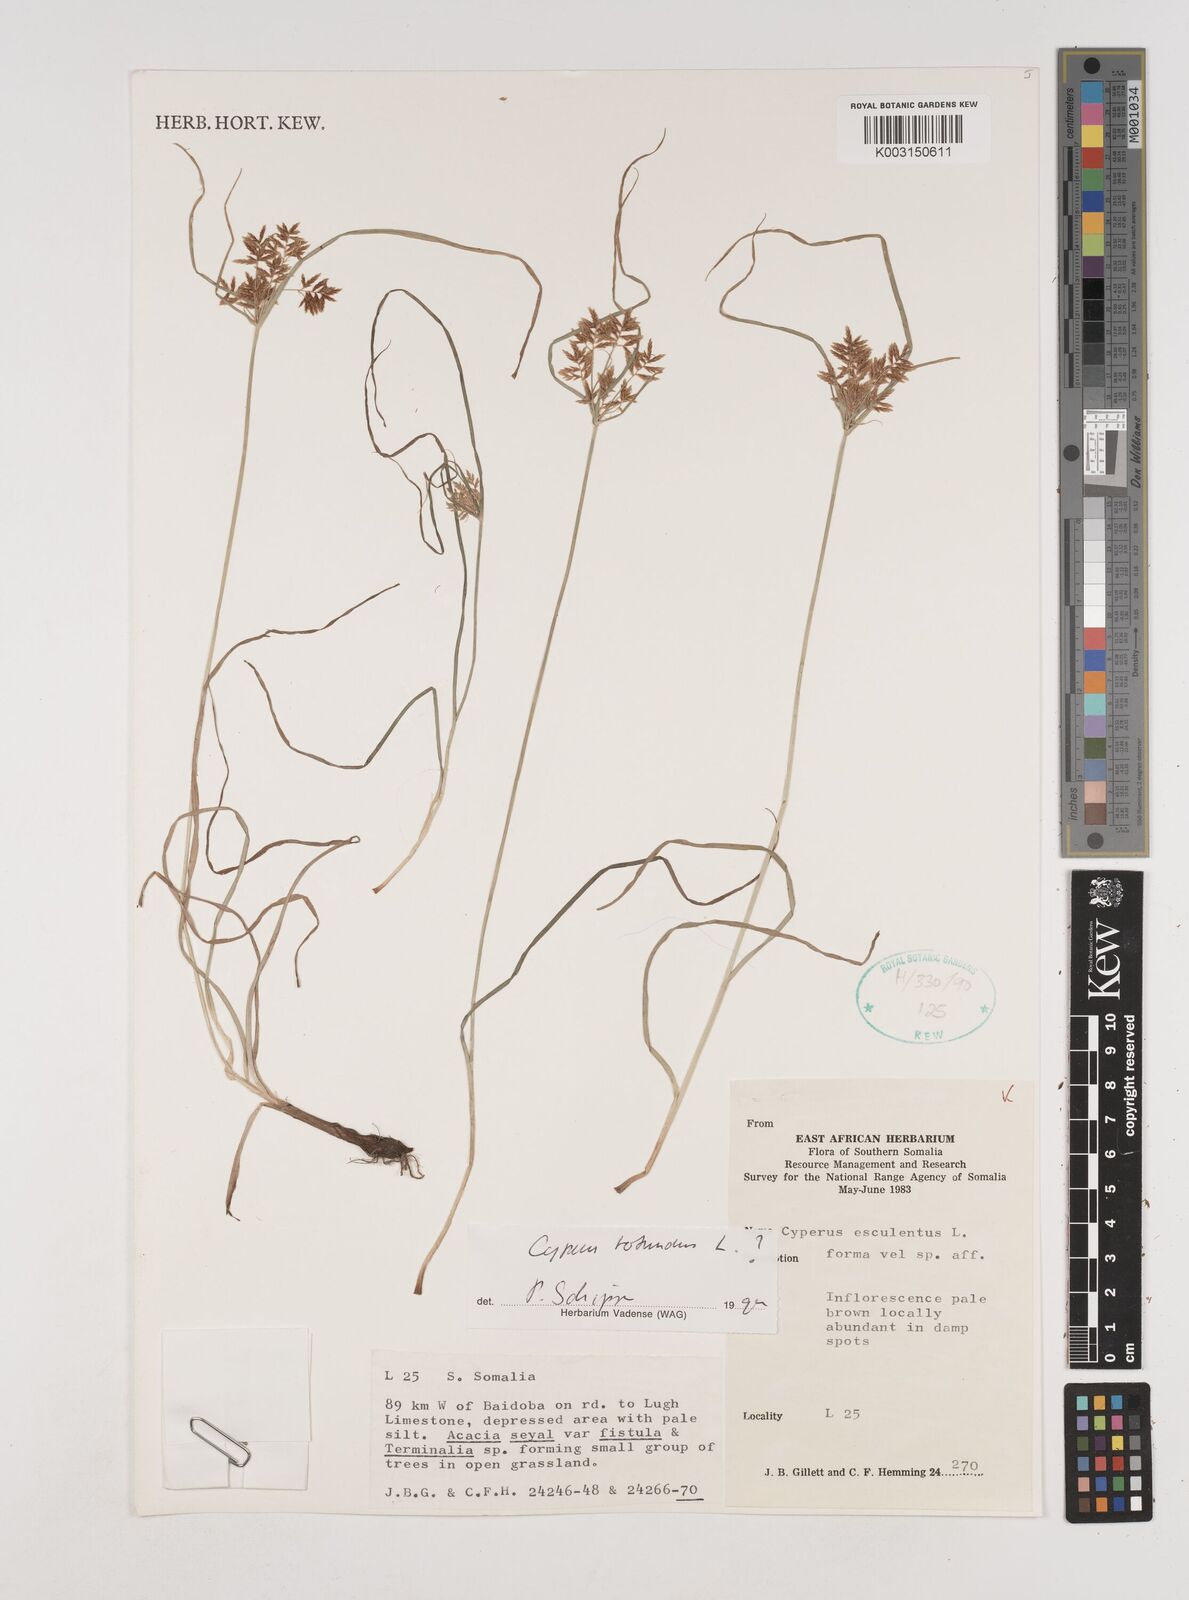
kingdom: Plantae
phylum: Tracheophyta
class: Liliopsida
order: Poales
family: Cyperaceae
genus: Cyperus
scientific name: Cyperus esculentus
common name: Yellow nutsedge
